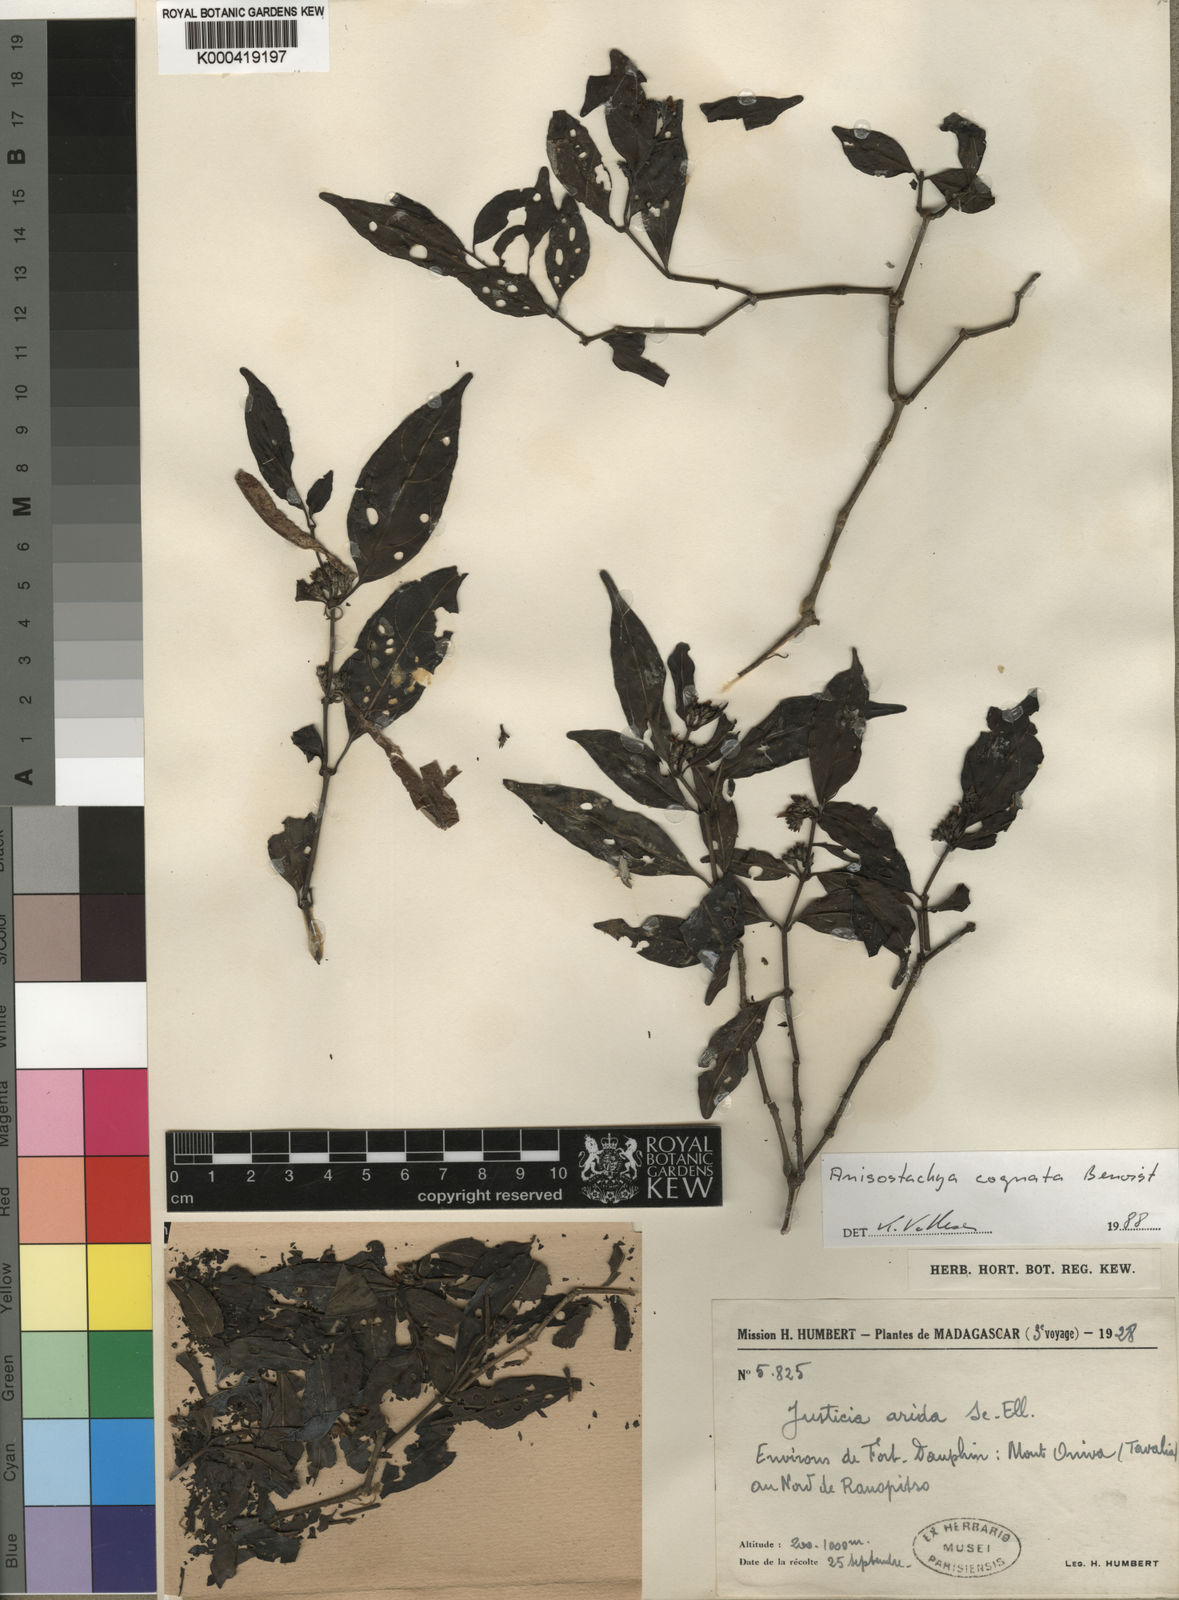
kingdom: Plantae
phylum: Tracheophyta
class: Magnoliopsida
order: Lamiales
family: Acanthaceae
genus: Justicia
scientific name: Justicia
